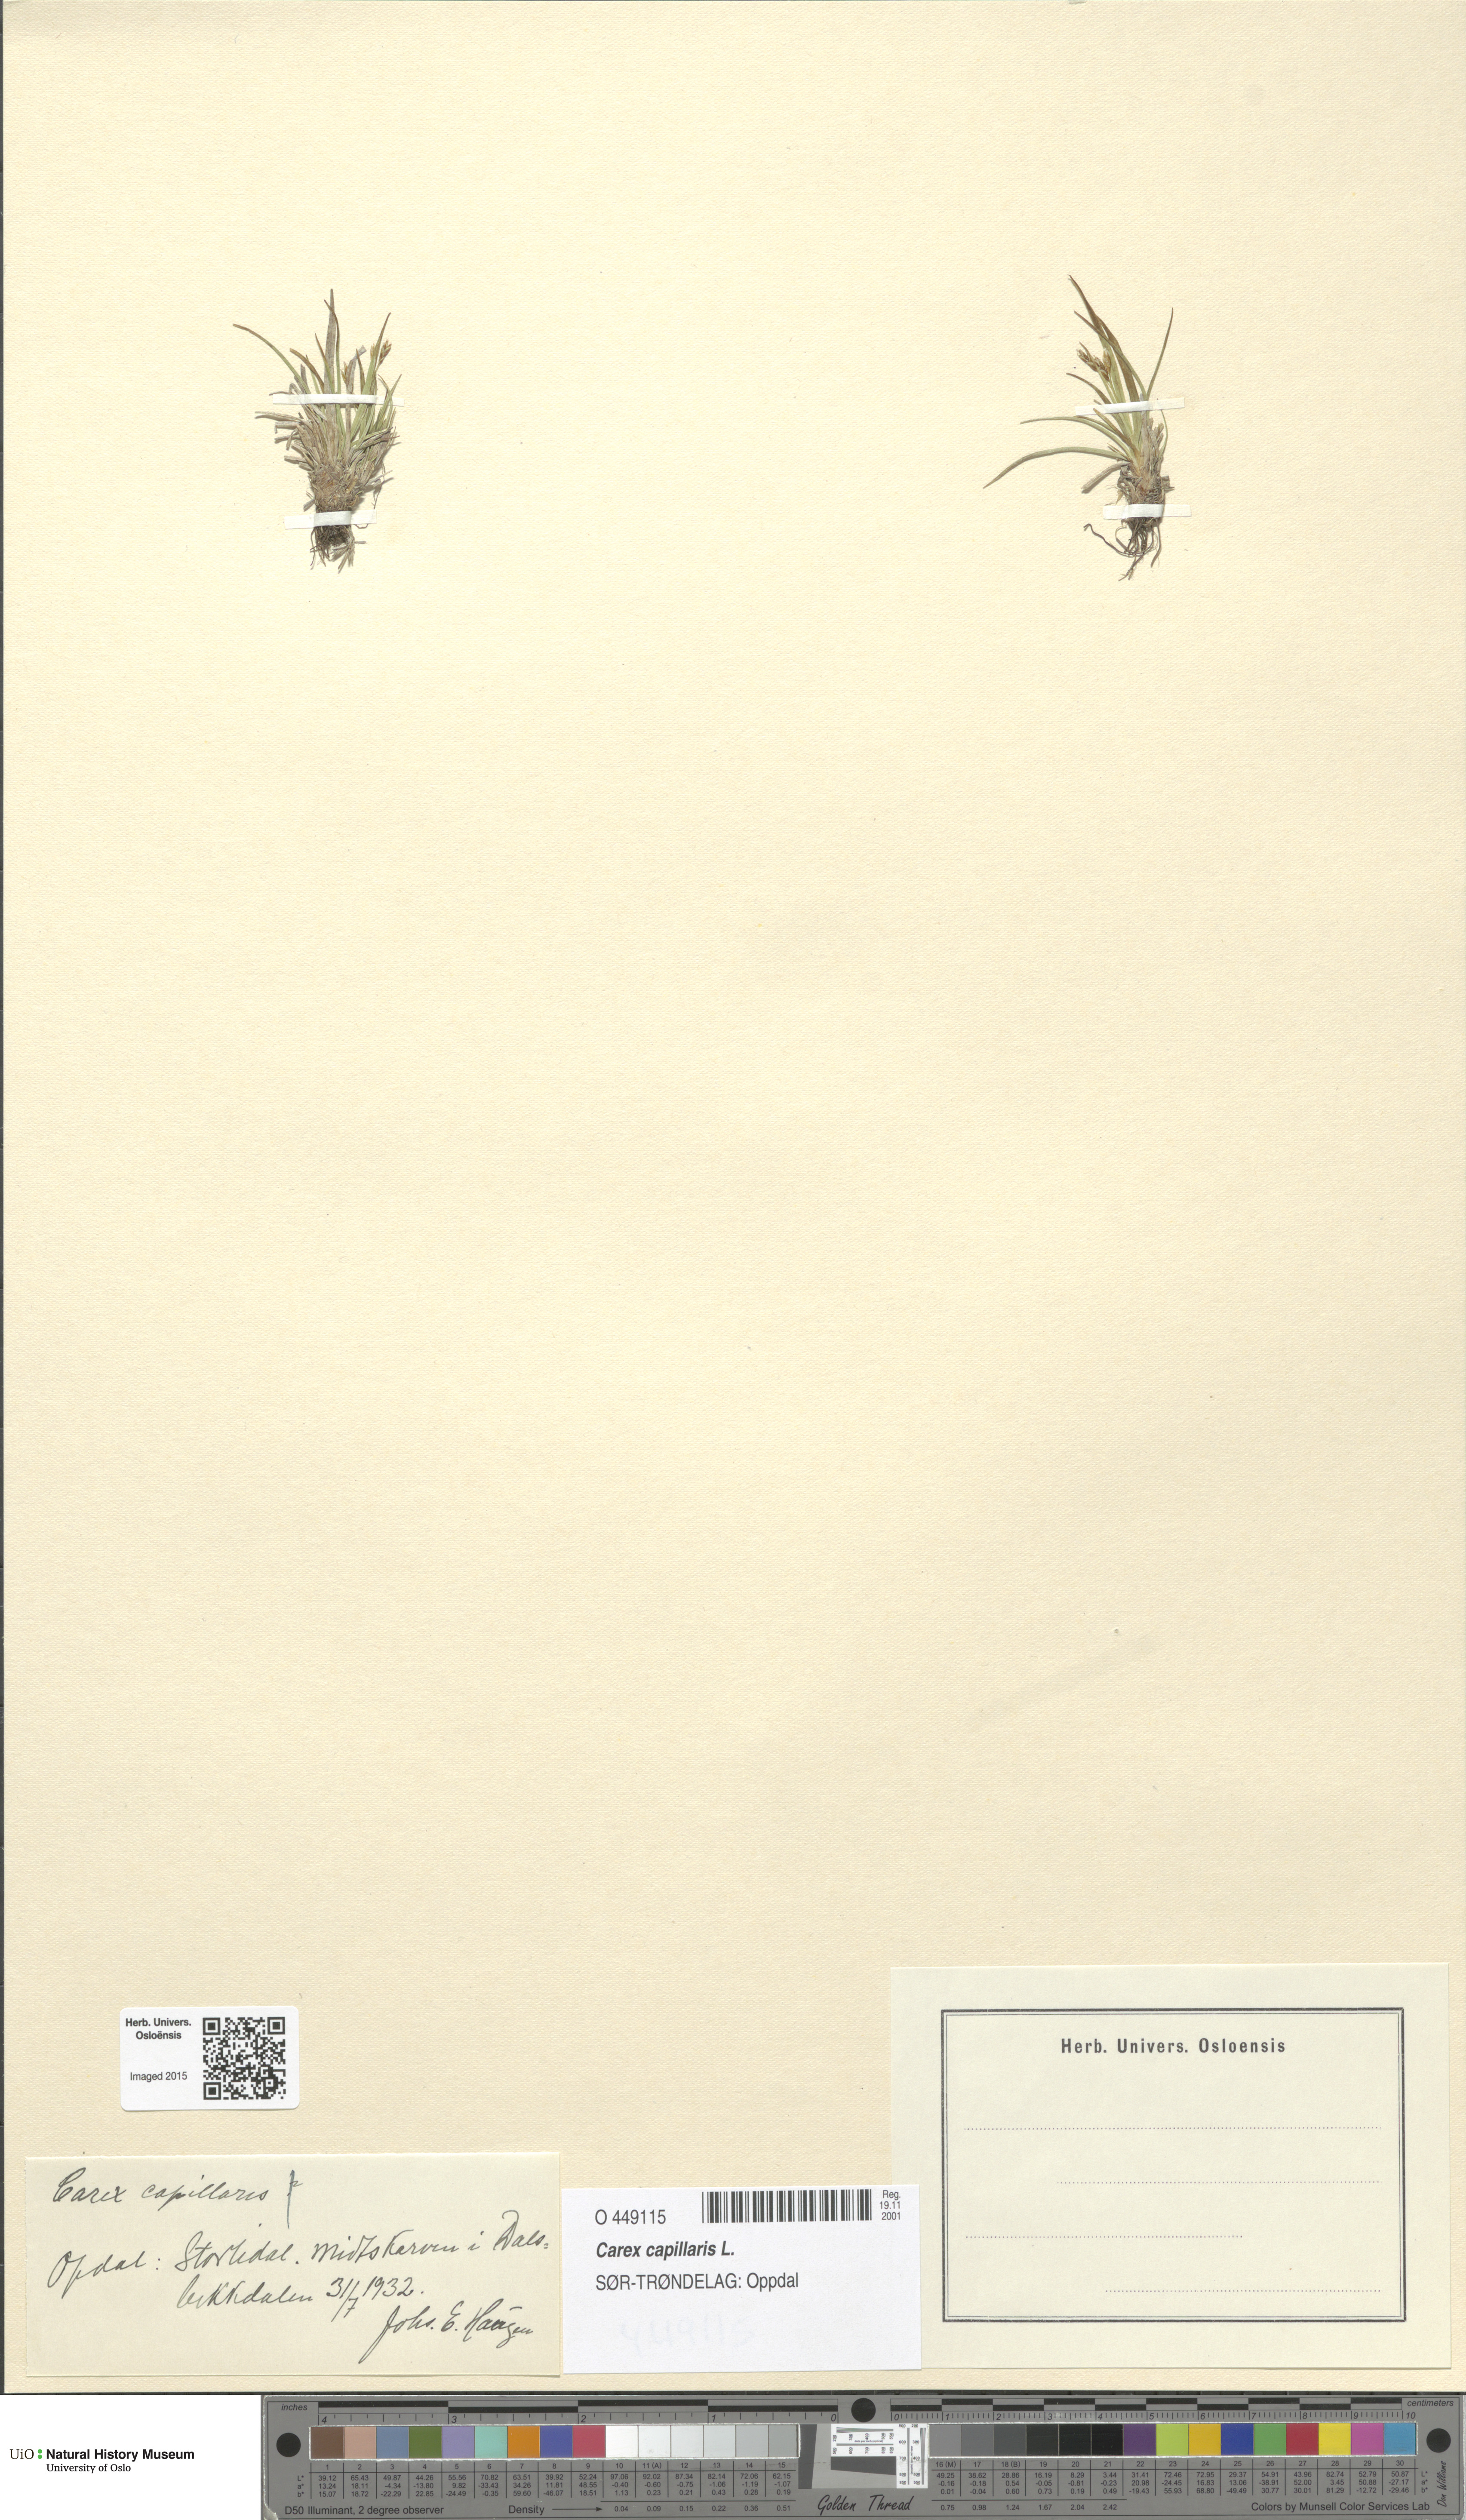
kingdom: Plantae
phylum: Tracheophyta
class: Liliopsida
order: Poales
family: Cyperaceae
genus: Carex
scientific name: Carex capillaris
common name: Hair sedge
